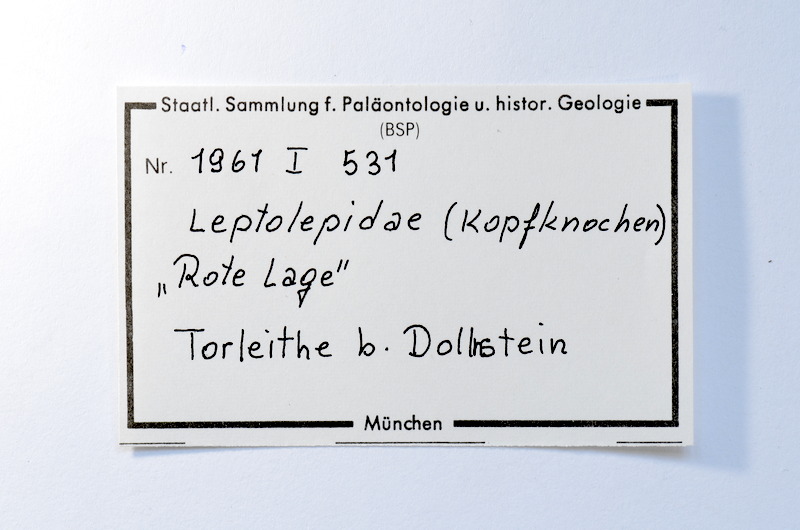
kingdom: Animalia
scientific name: Animalia
